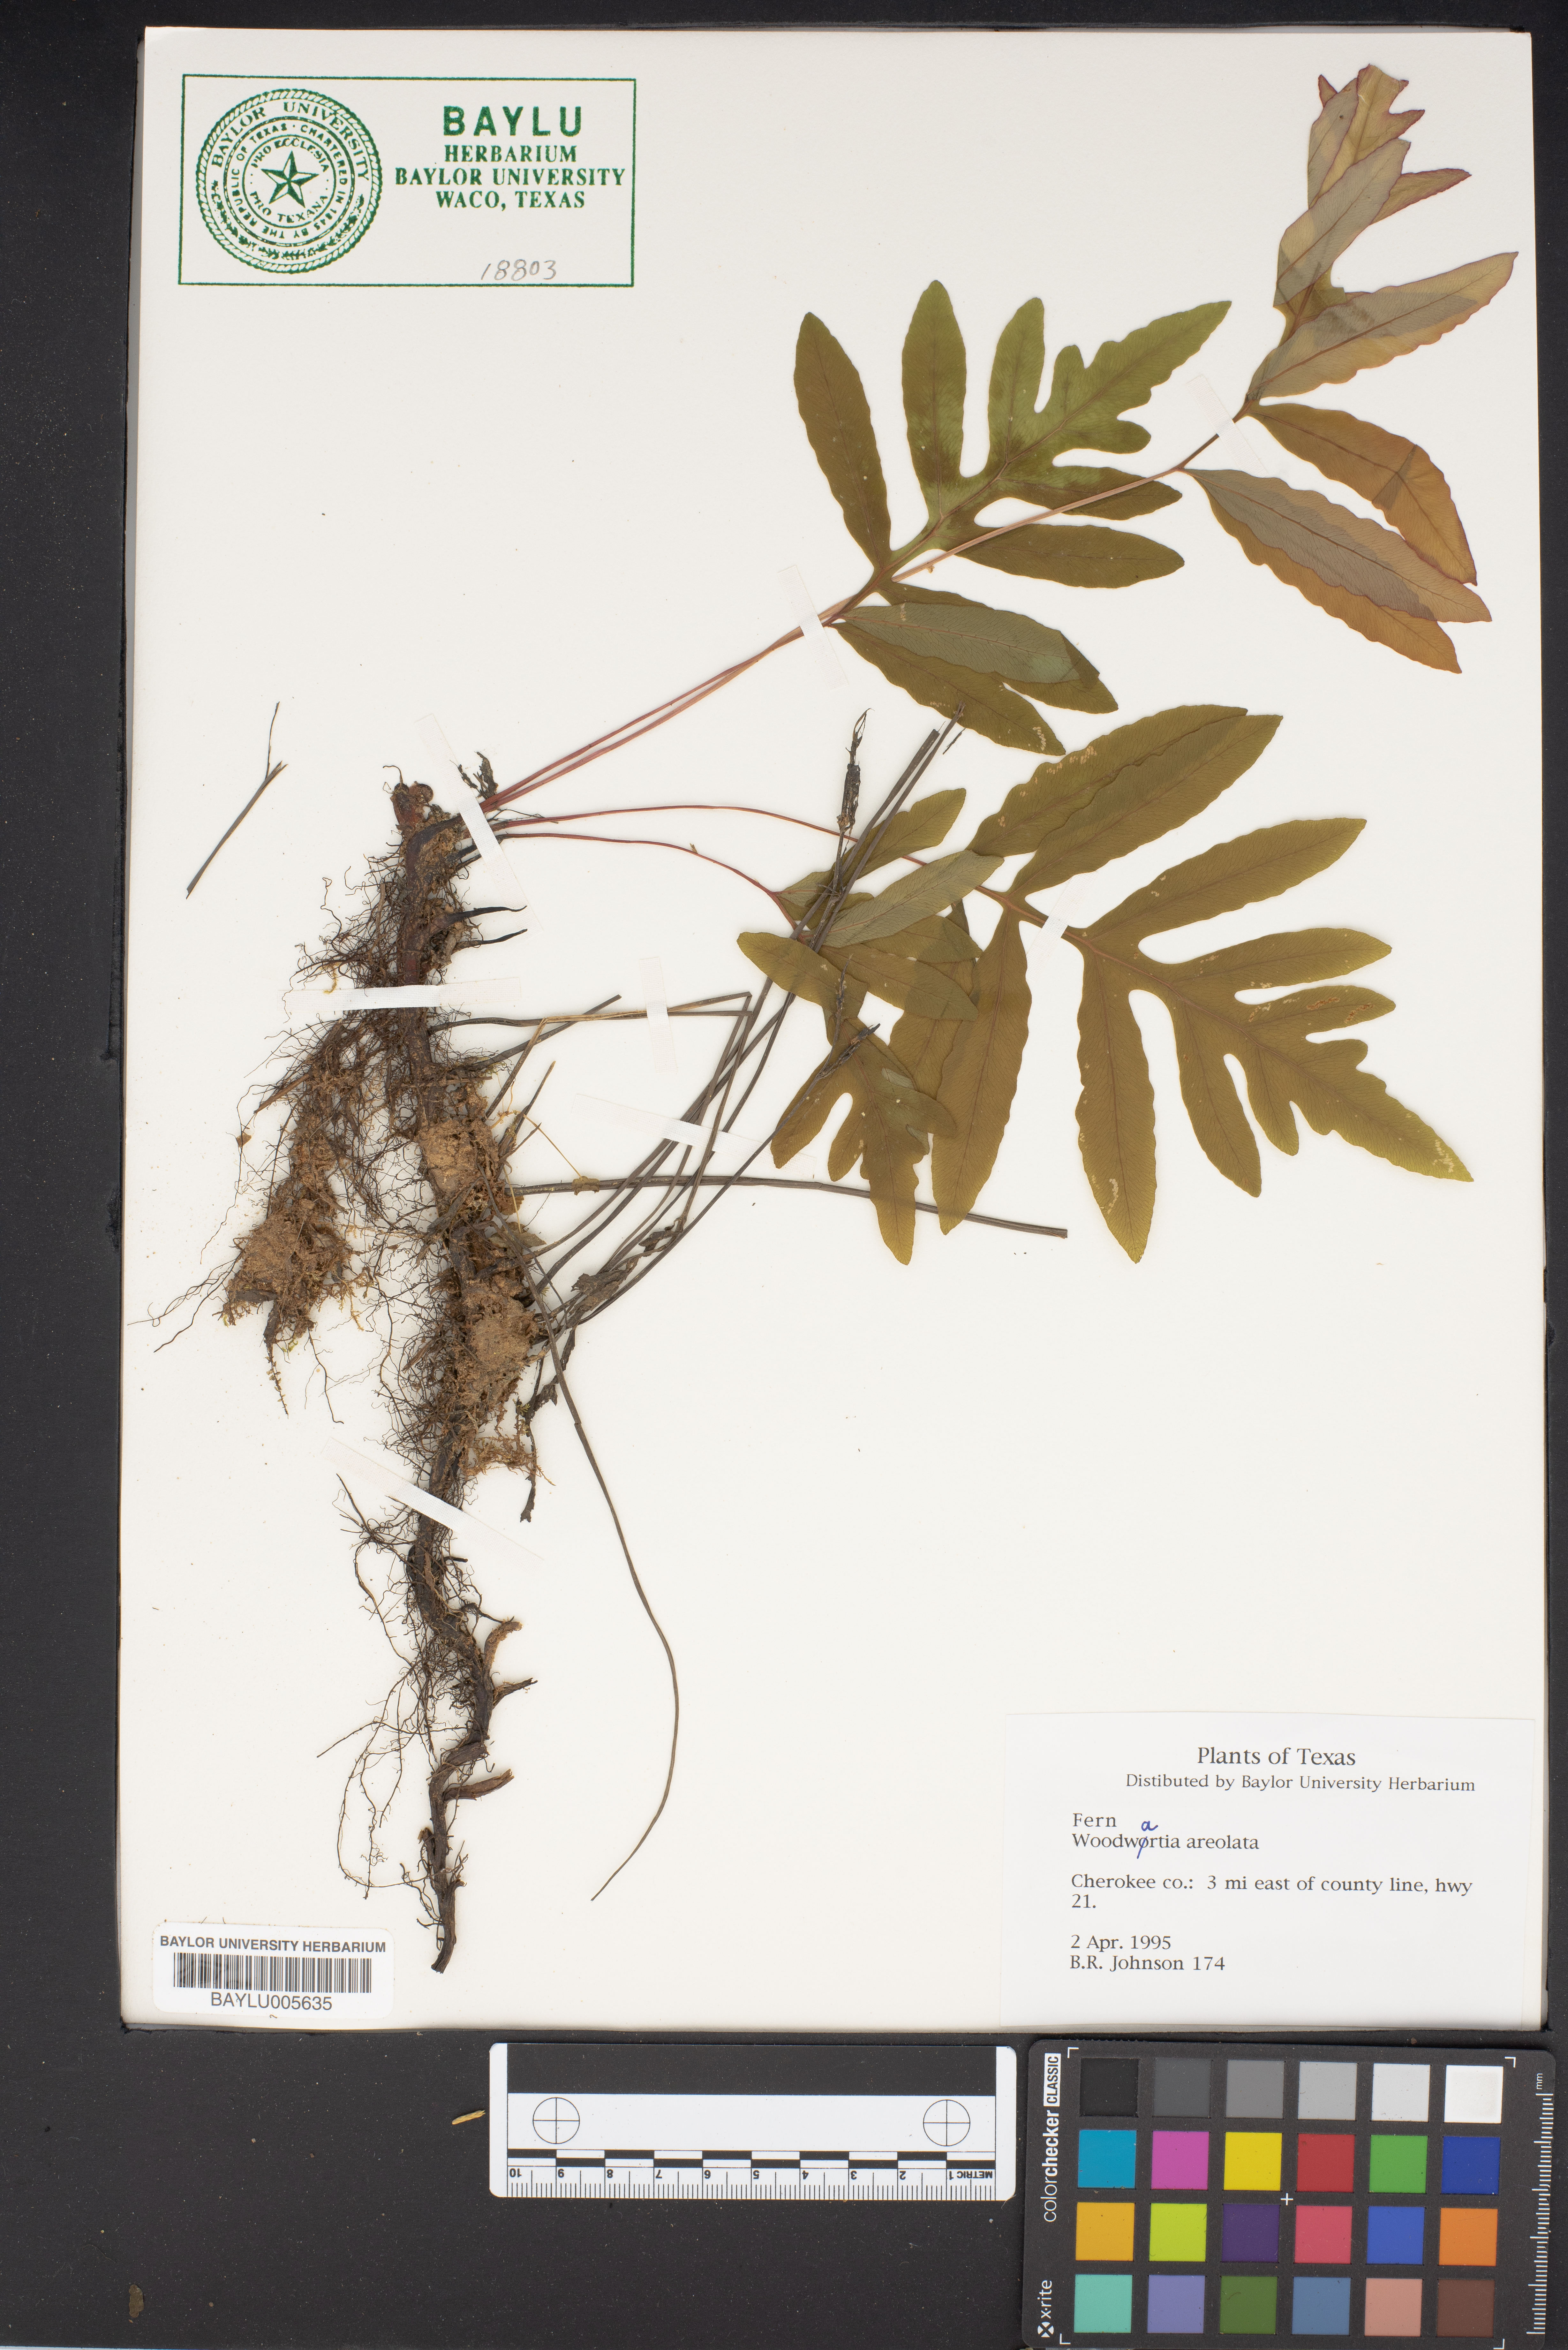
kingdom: Plantae
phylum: Tracheophyta
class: Polypodiopsida
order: Polypodiales
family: Blechnaceae
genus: Lorinseria
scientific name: Lorinseria areolata
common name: Dwarf chain fern
